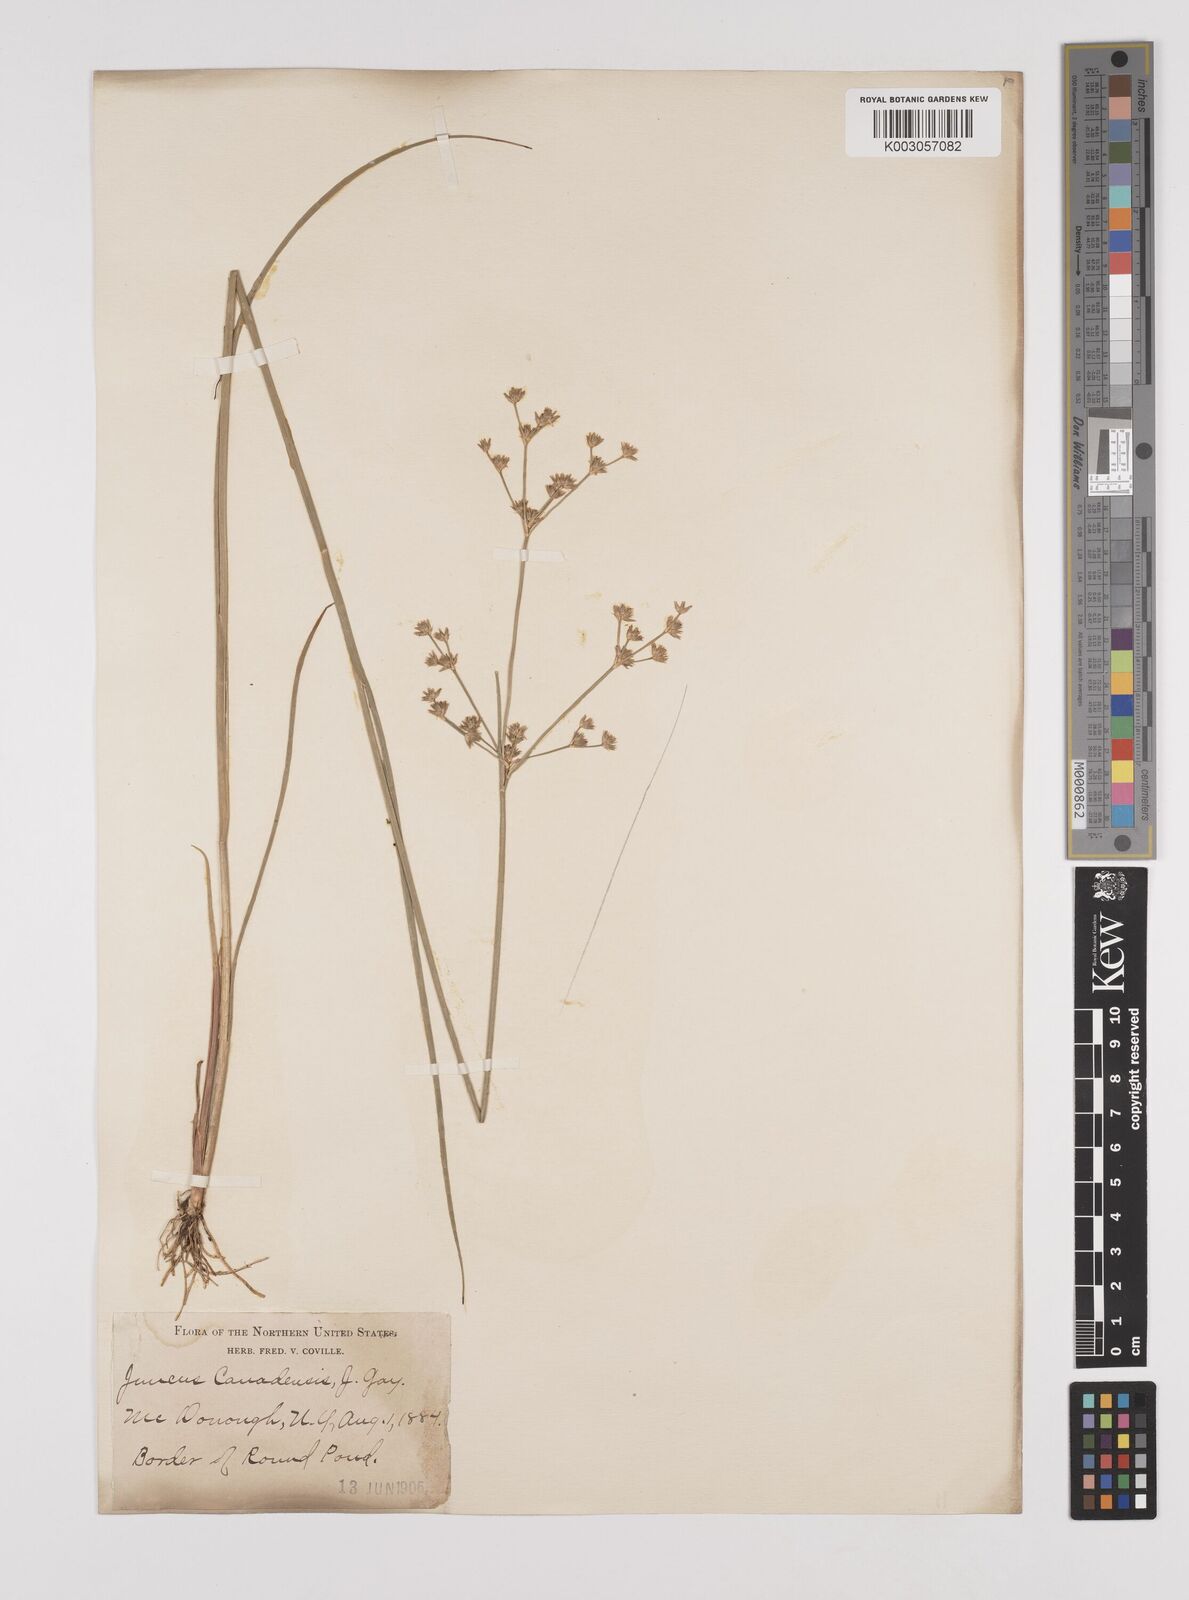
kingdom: Plantae
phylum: Tracheophyta
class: Liliopsida
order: Poales
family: Juncaceae
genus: Juncus
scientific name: Juncus canadensis
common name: Canada rush
